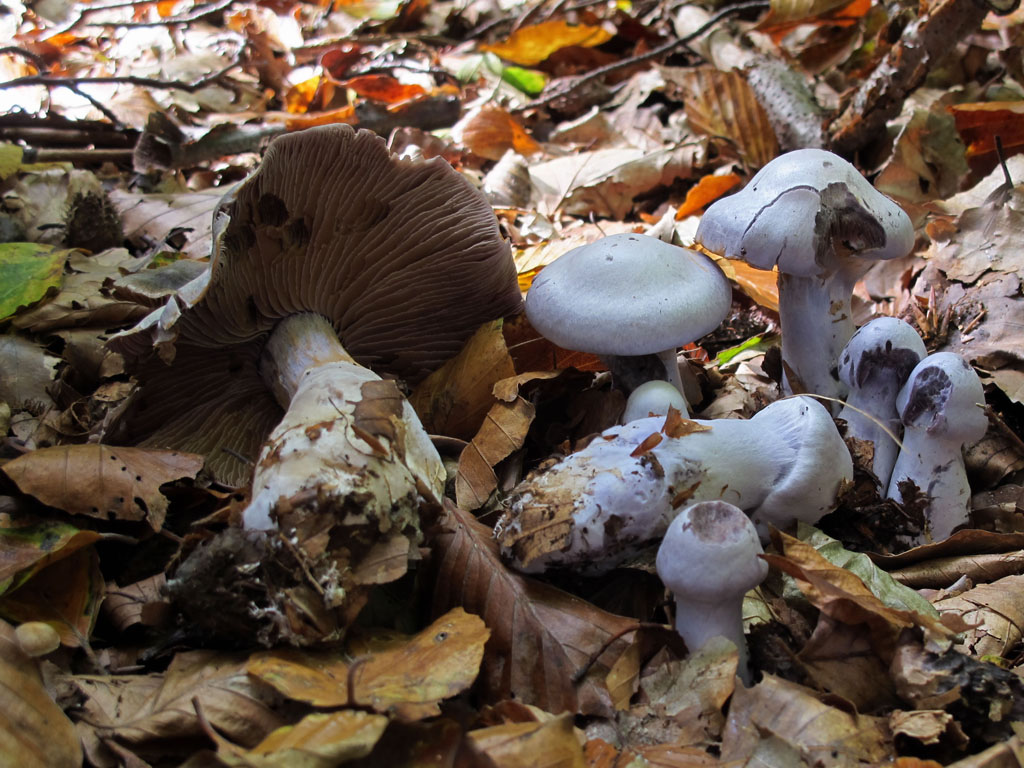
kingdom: Fungi
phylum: Basidiomycota
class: Agaricomycetes
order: Agaricales
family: Cortinariaceae
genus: Cortinarius
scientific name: Cortinarius alboviolaceus
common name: lysviolet slørhat
